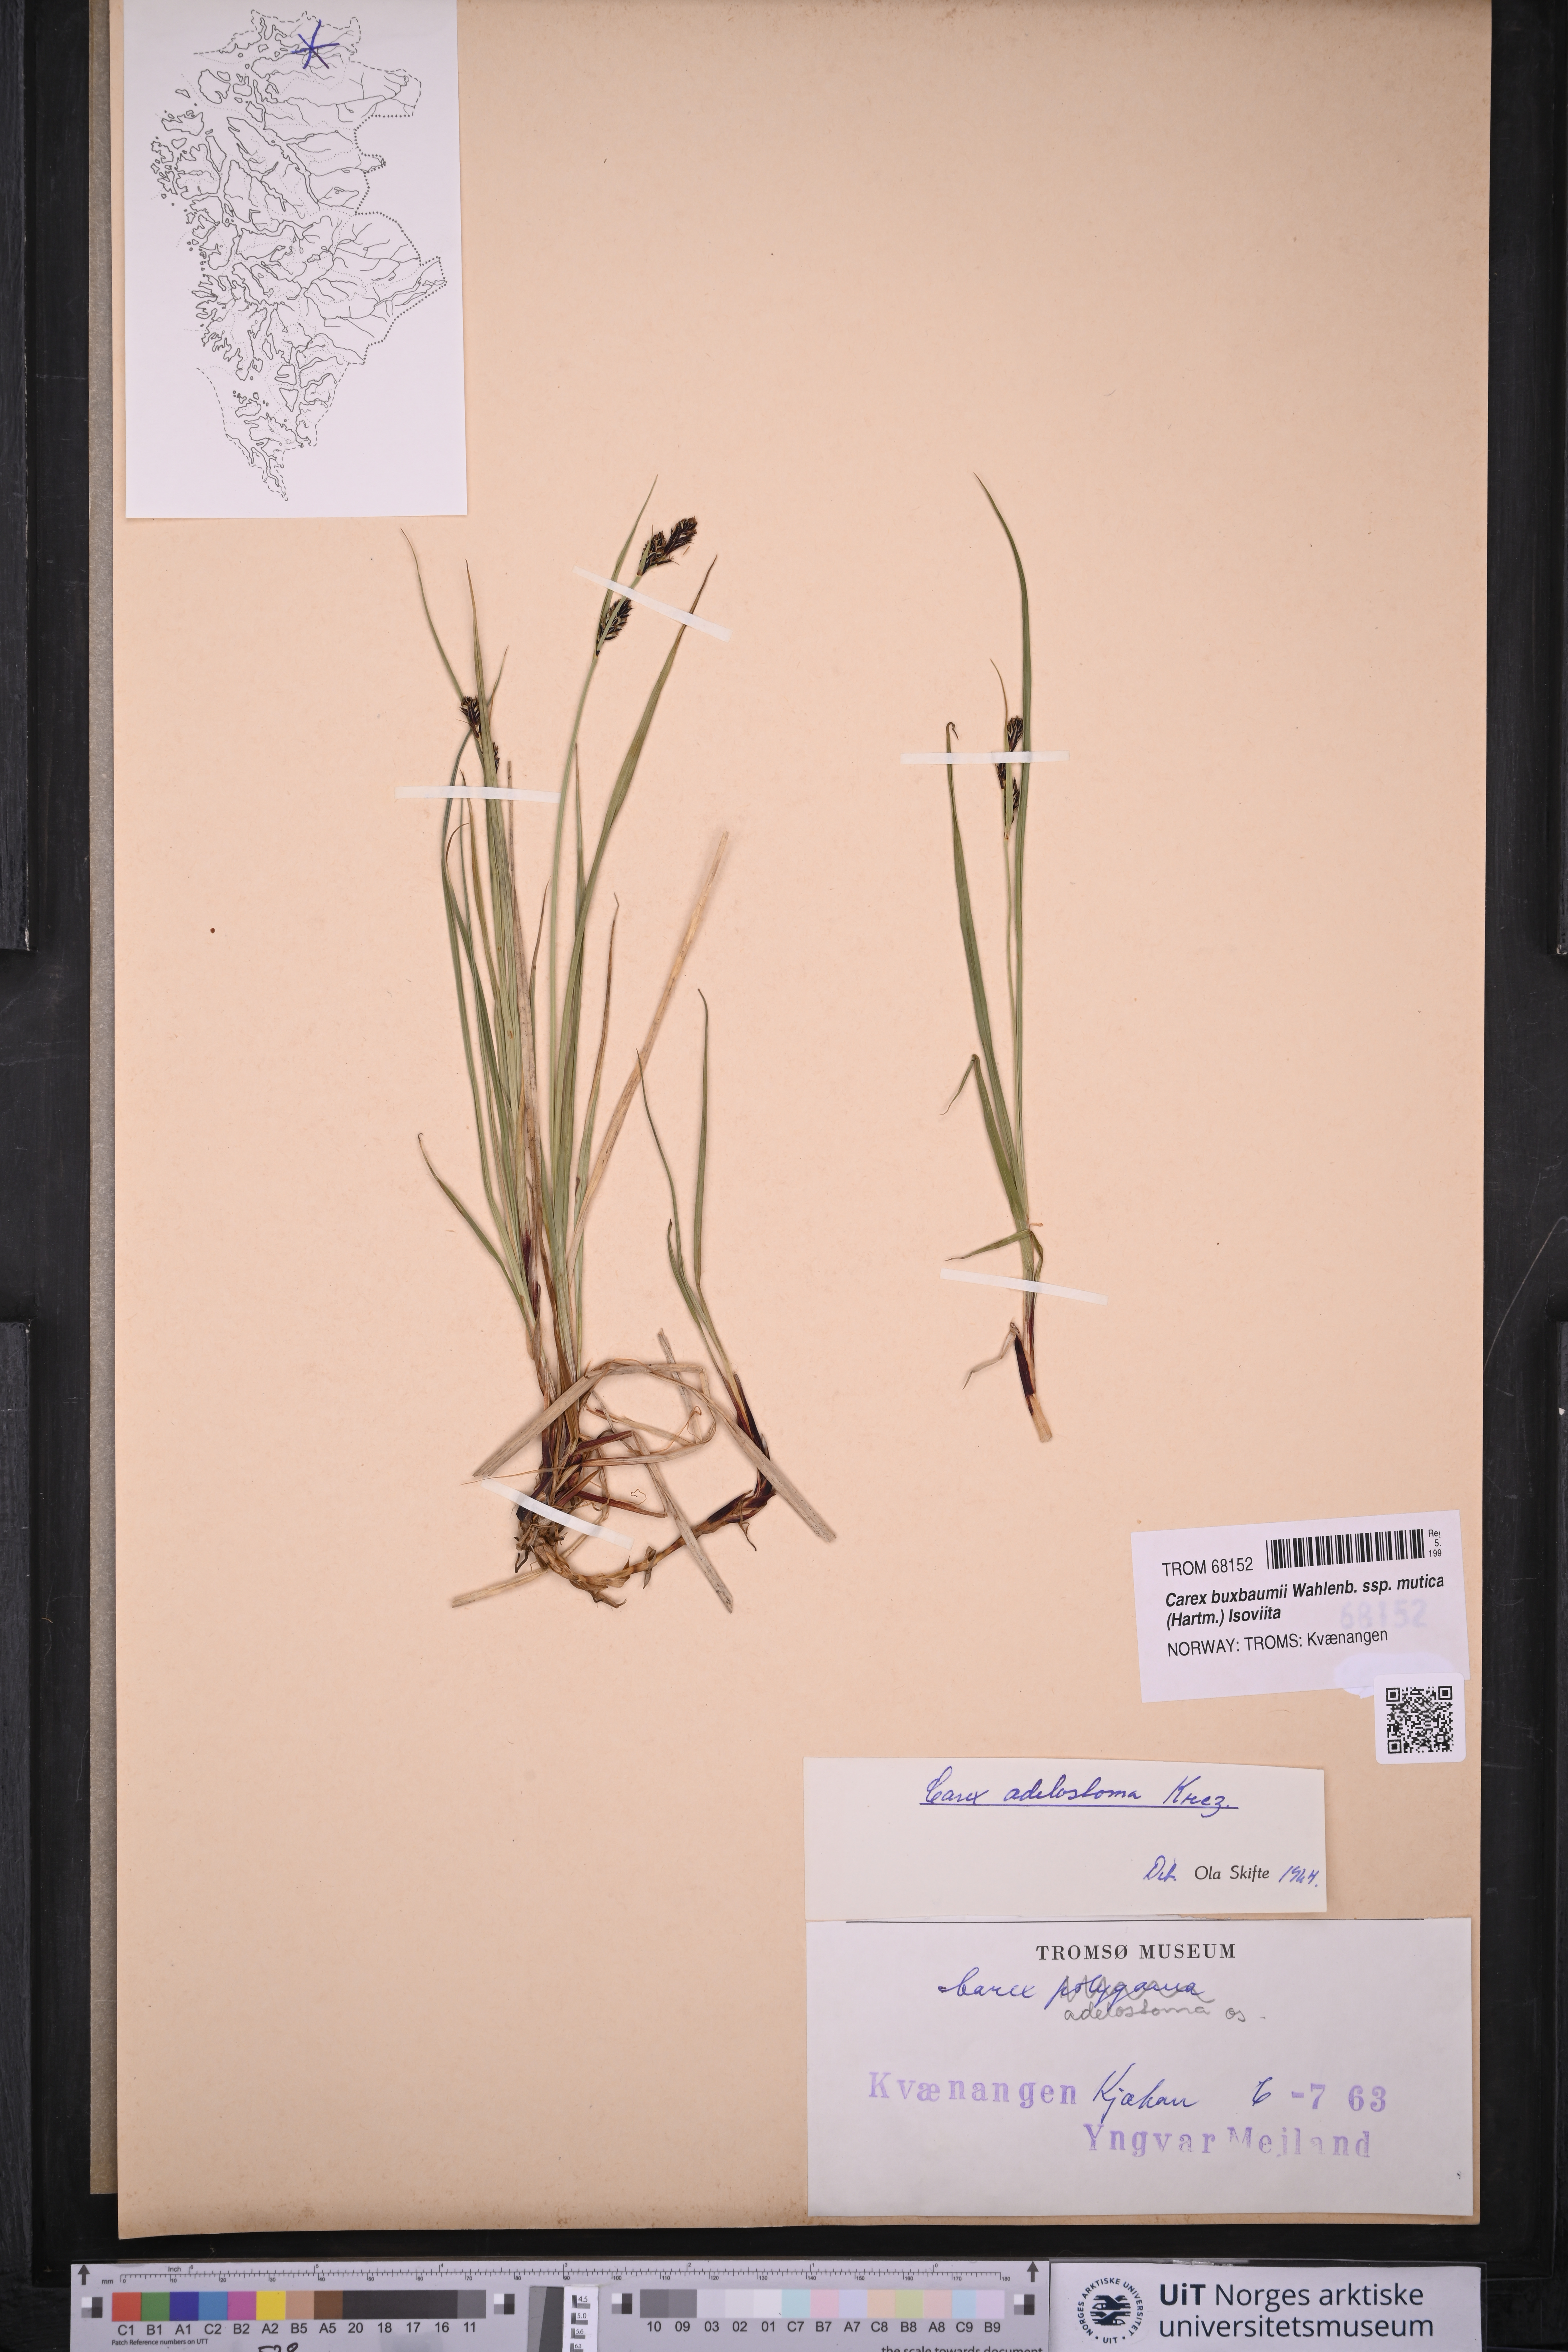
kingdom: Plantae
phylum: Tracheophyta
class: Liliopsida
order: Poales
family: Cyperaceae
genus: Carex
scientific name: Carex adelostoma
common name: Circumpolar sedge
